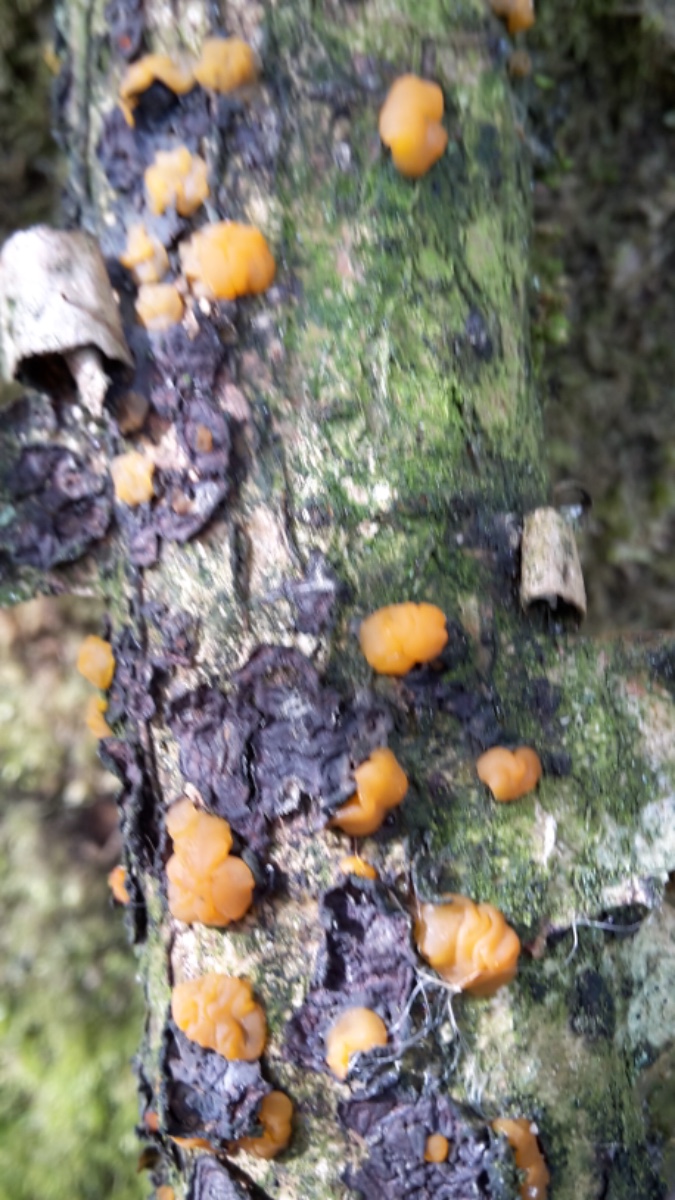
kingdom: Fungi
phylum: Basidiomycota
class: Dacrymycetes
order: Dacrymycetales
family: Dacrymycetaceae
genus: Dacrymyces
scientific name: Dacrymyces lacrymalis
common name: rynket tåresvamp
